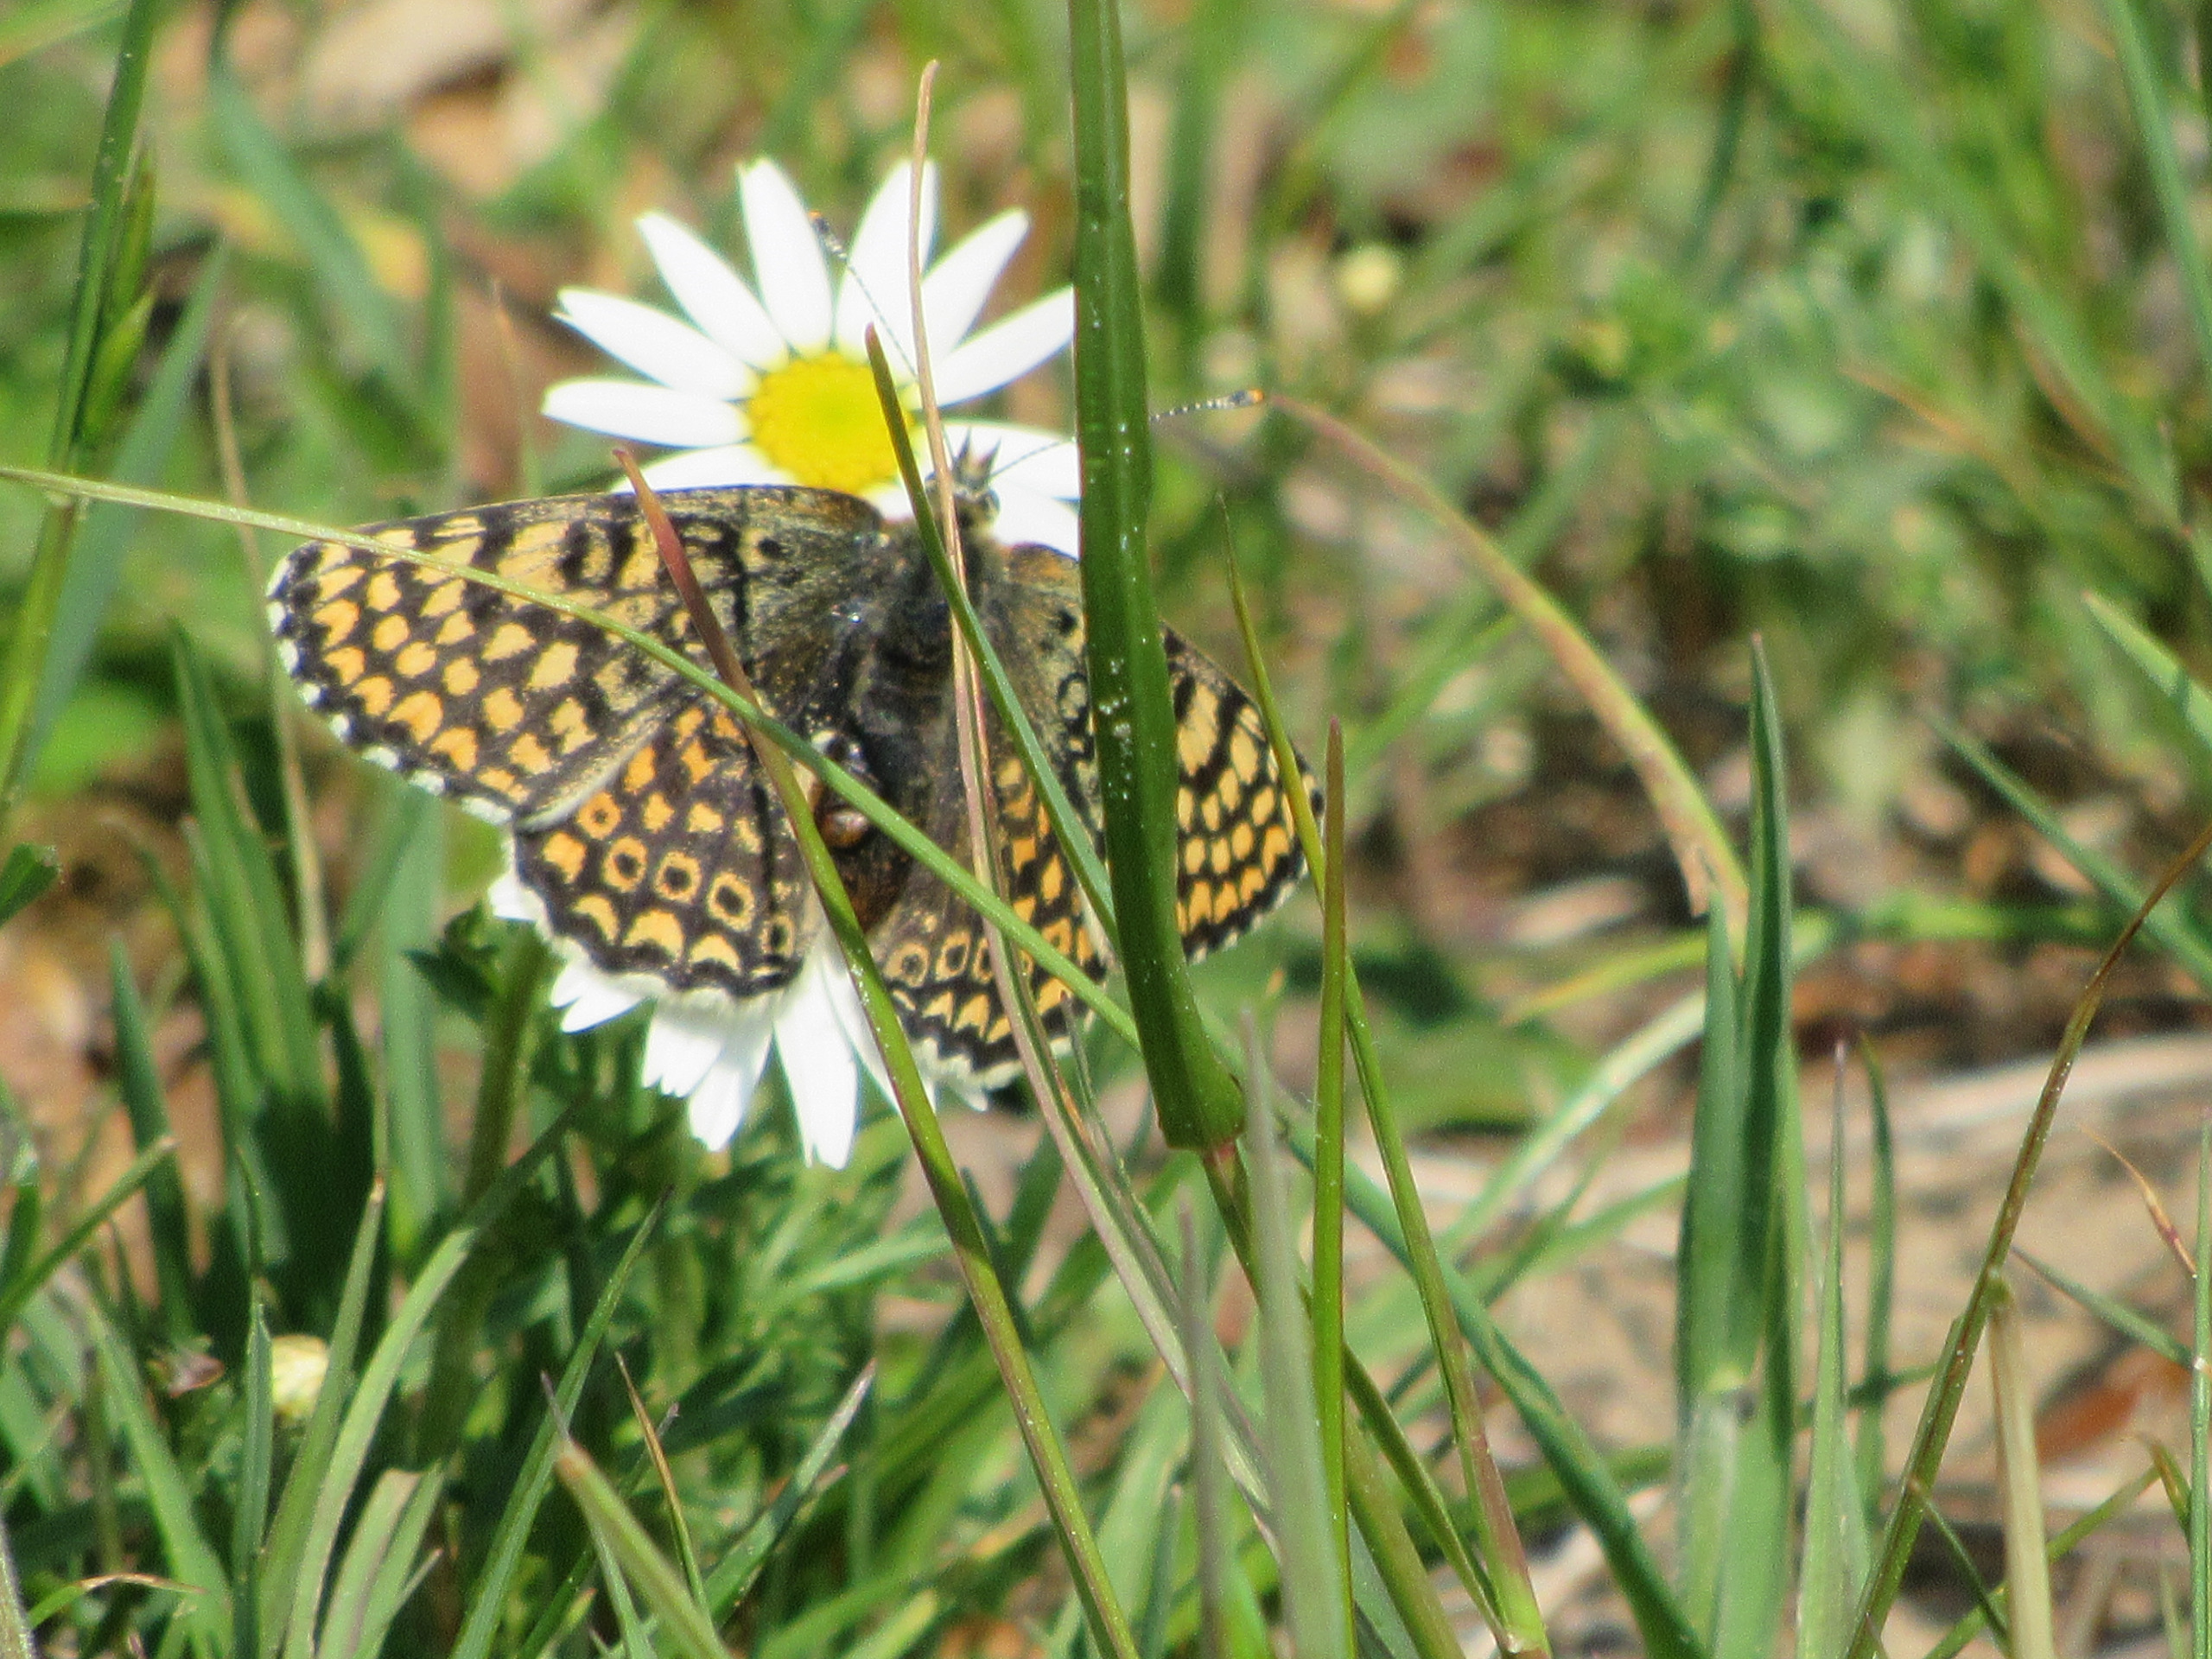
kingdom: Animalia
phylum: Arthropoda
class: Insecta
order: Lepidoptera
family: Nymphalidae
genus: Melitaea
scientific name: Melitaea cinxia
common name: Okkergul pletvinge
